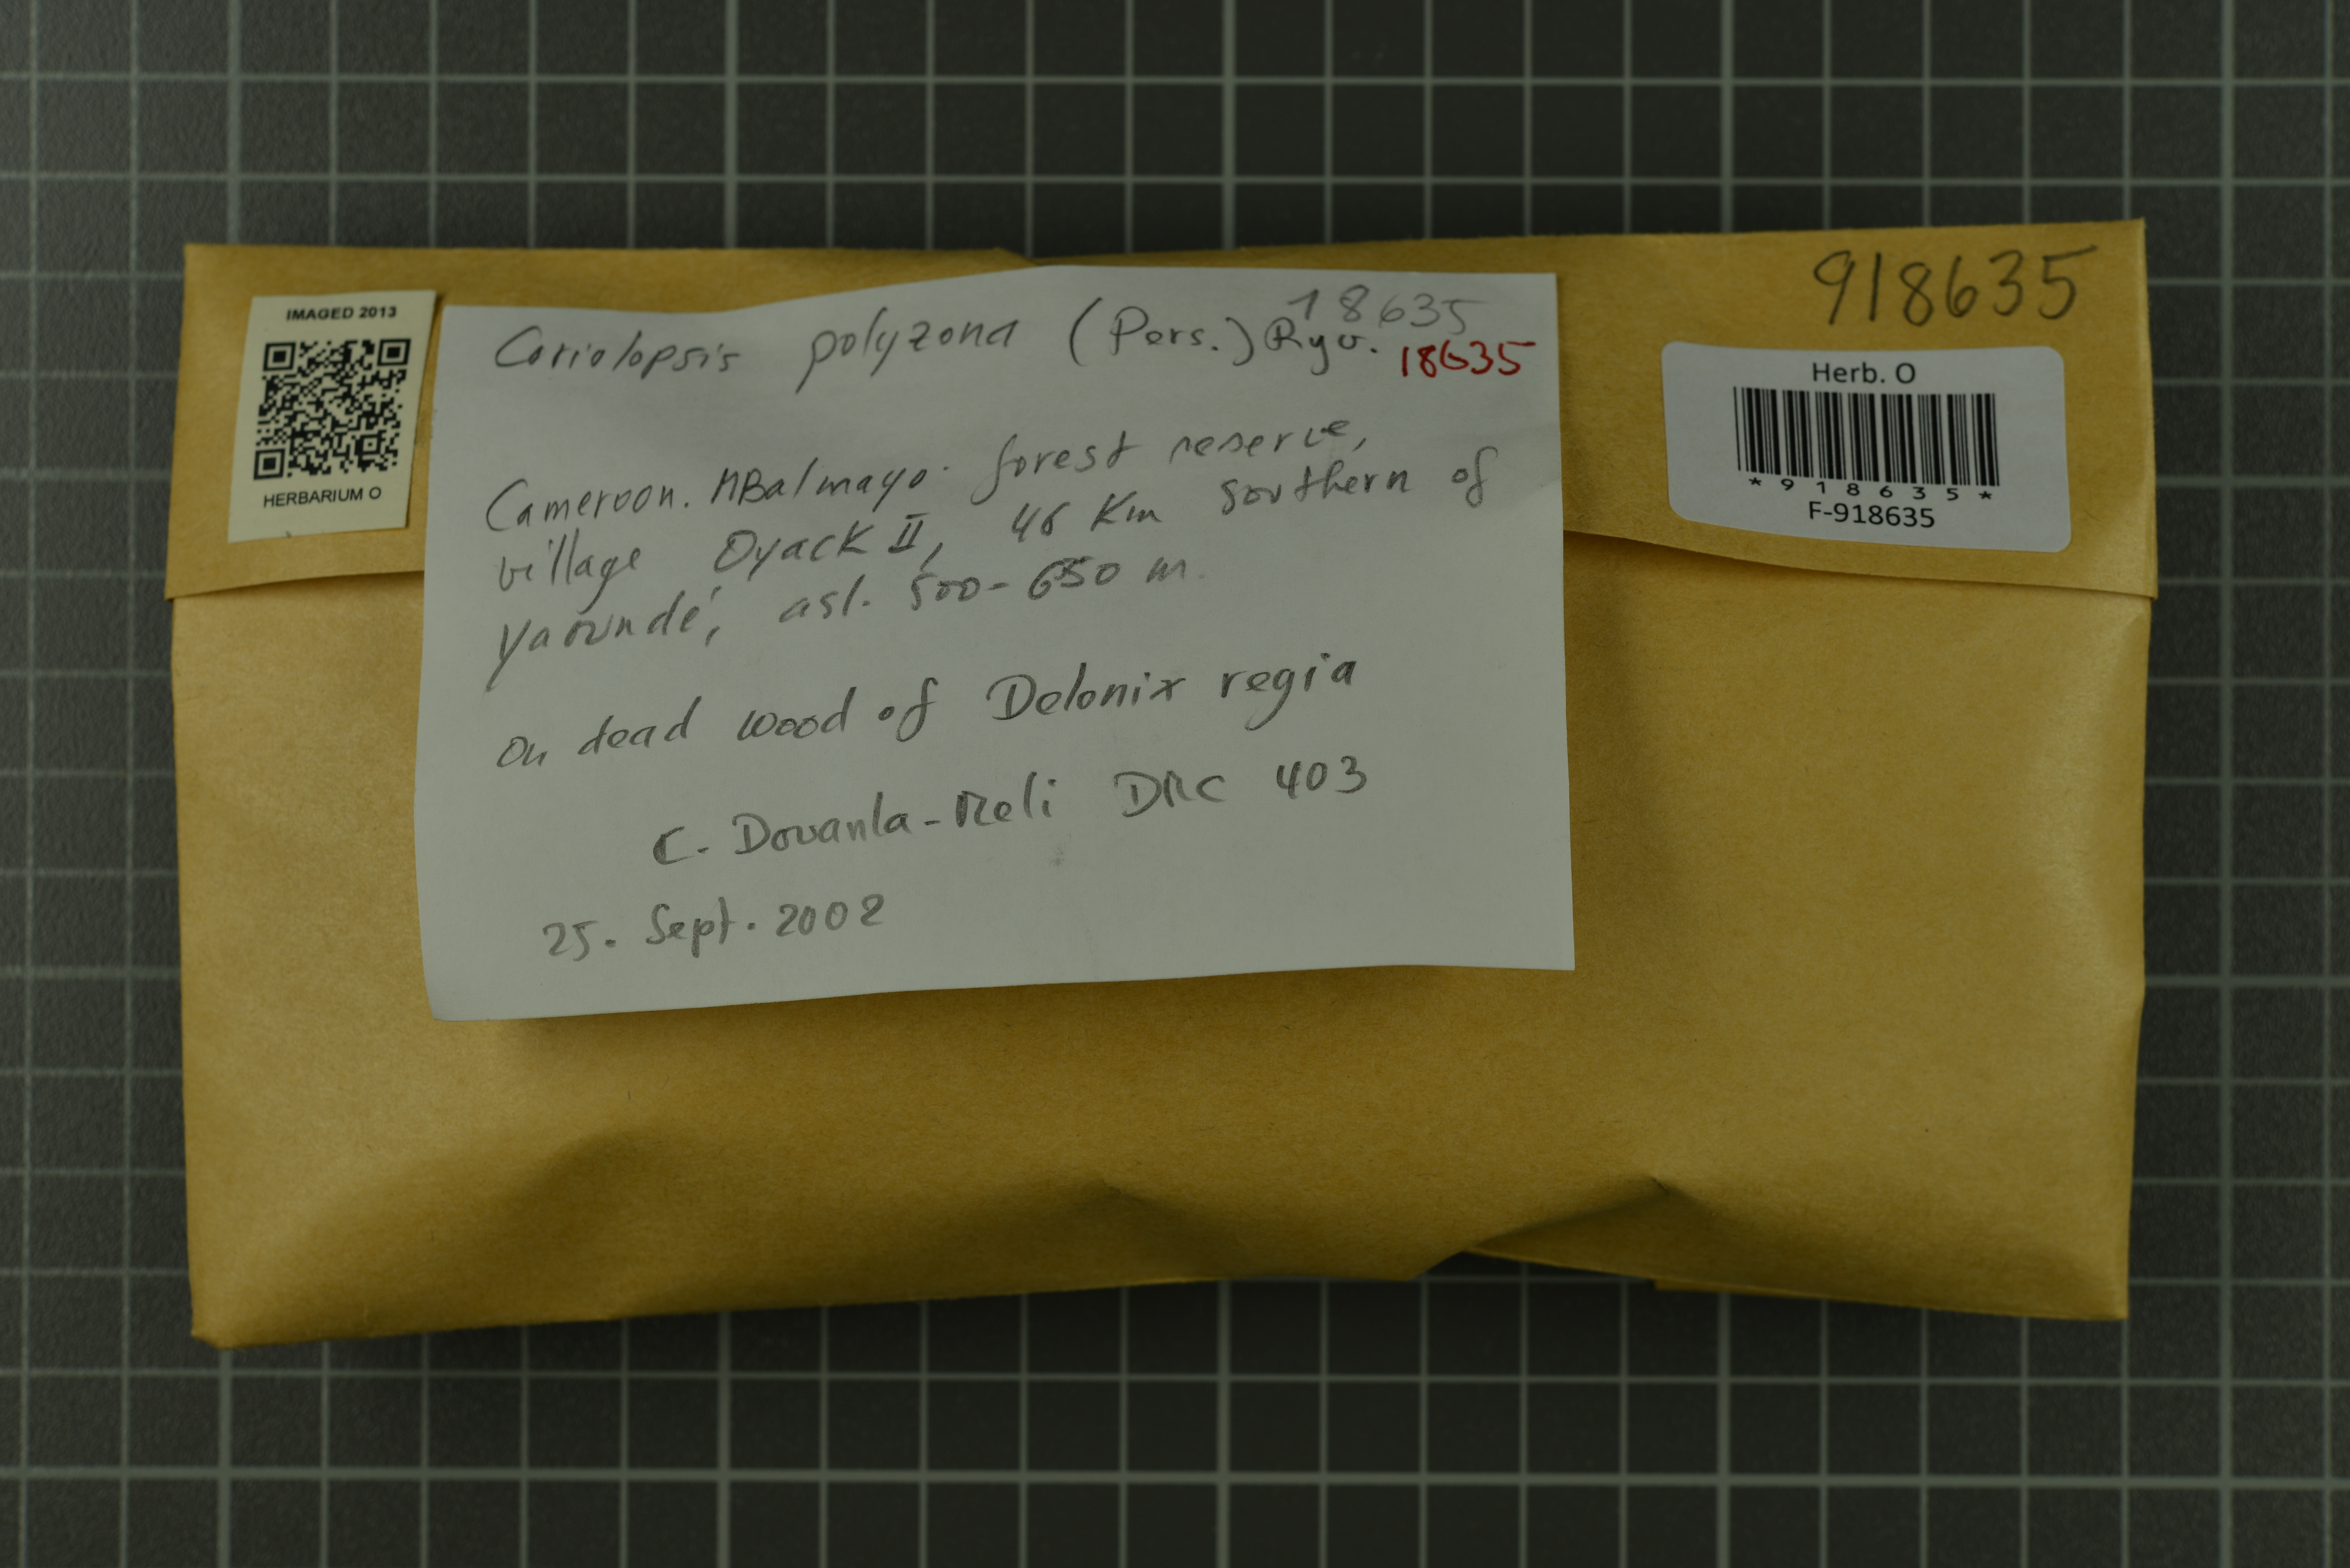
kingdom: Fungi
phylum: Basidiomycota
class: Agaricomycetes
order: Polyporales
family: Polyporaceae
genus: Trametes
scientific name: Trametes polyzona
